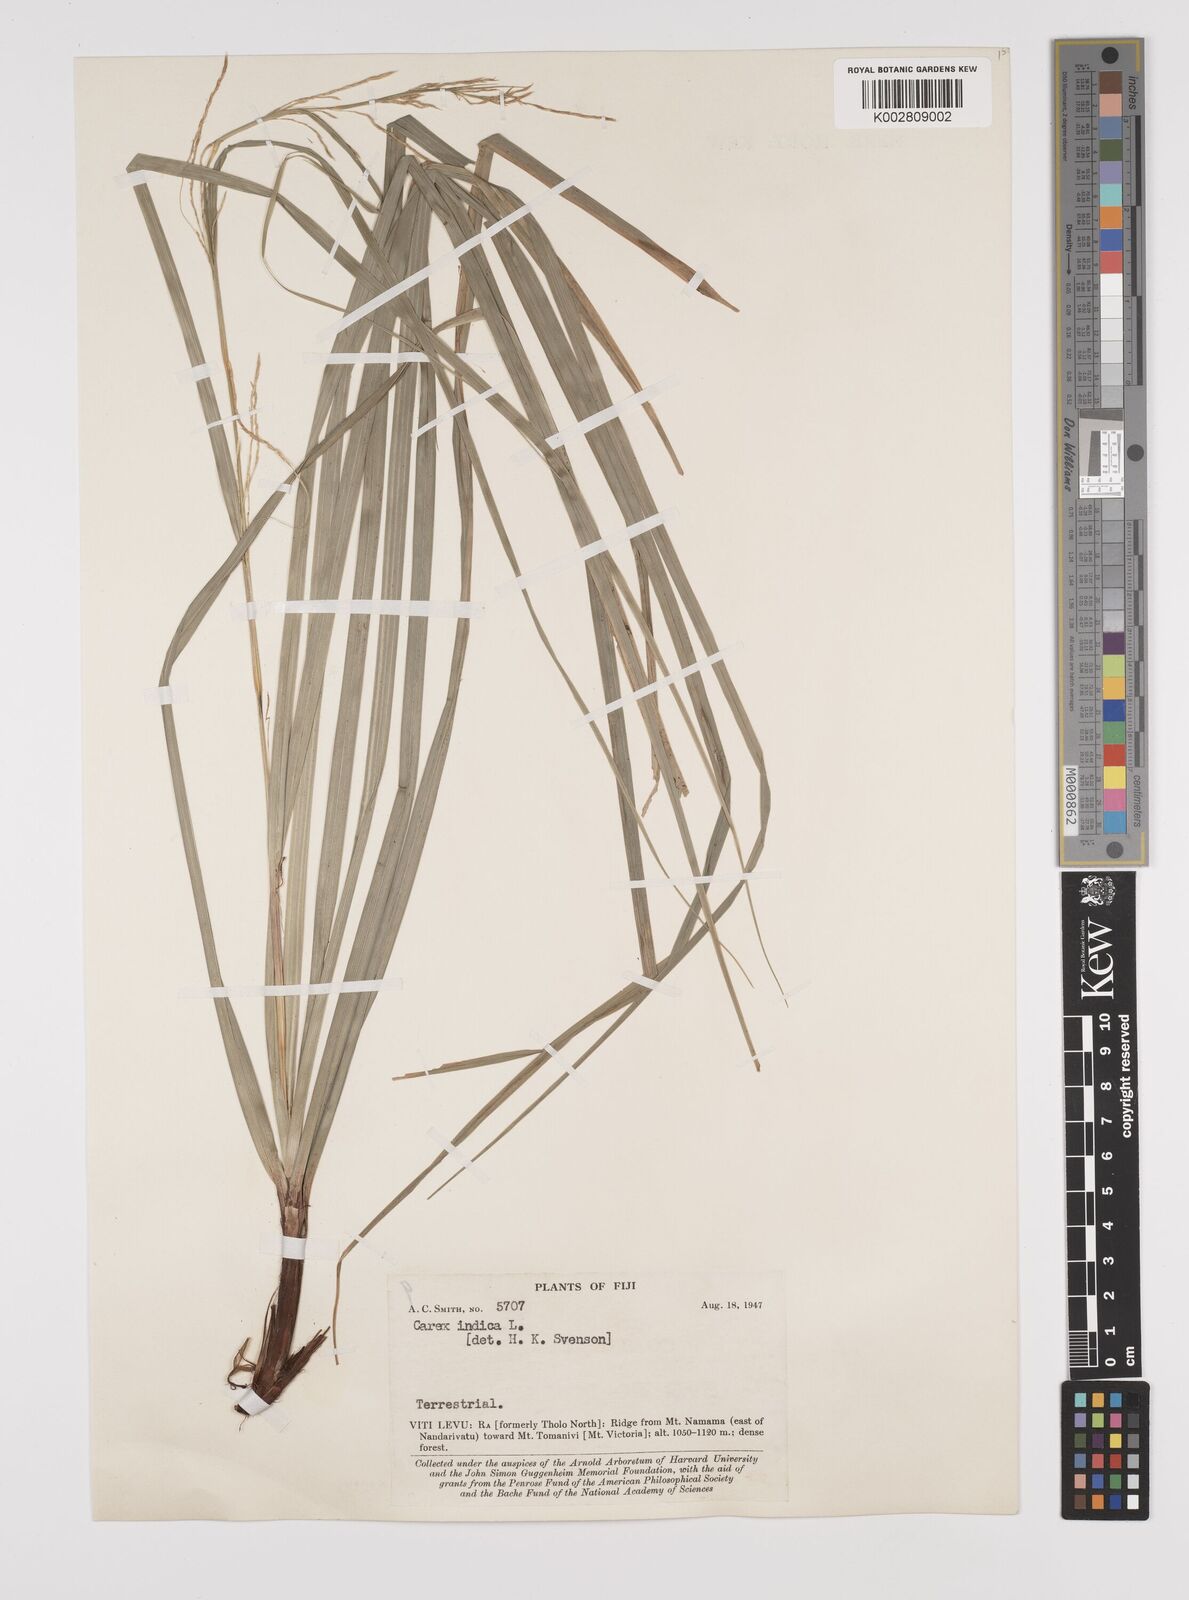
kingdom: Plantae
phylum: Tracheophyta
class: Liliopsida
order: Poales
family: Cyperaceae
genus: Carex
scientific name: Carex indica
